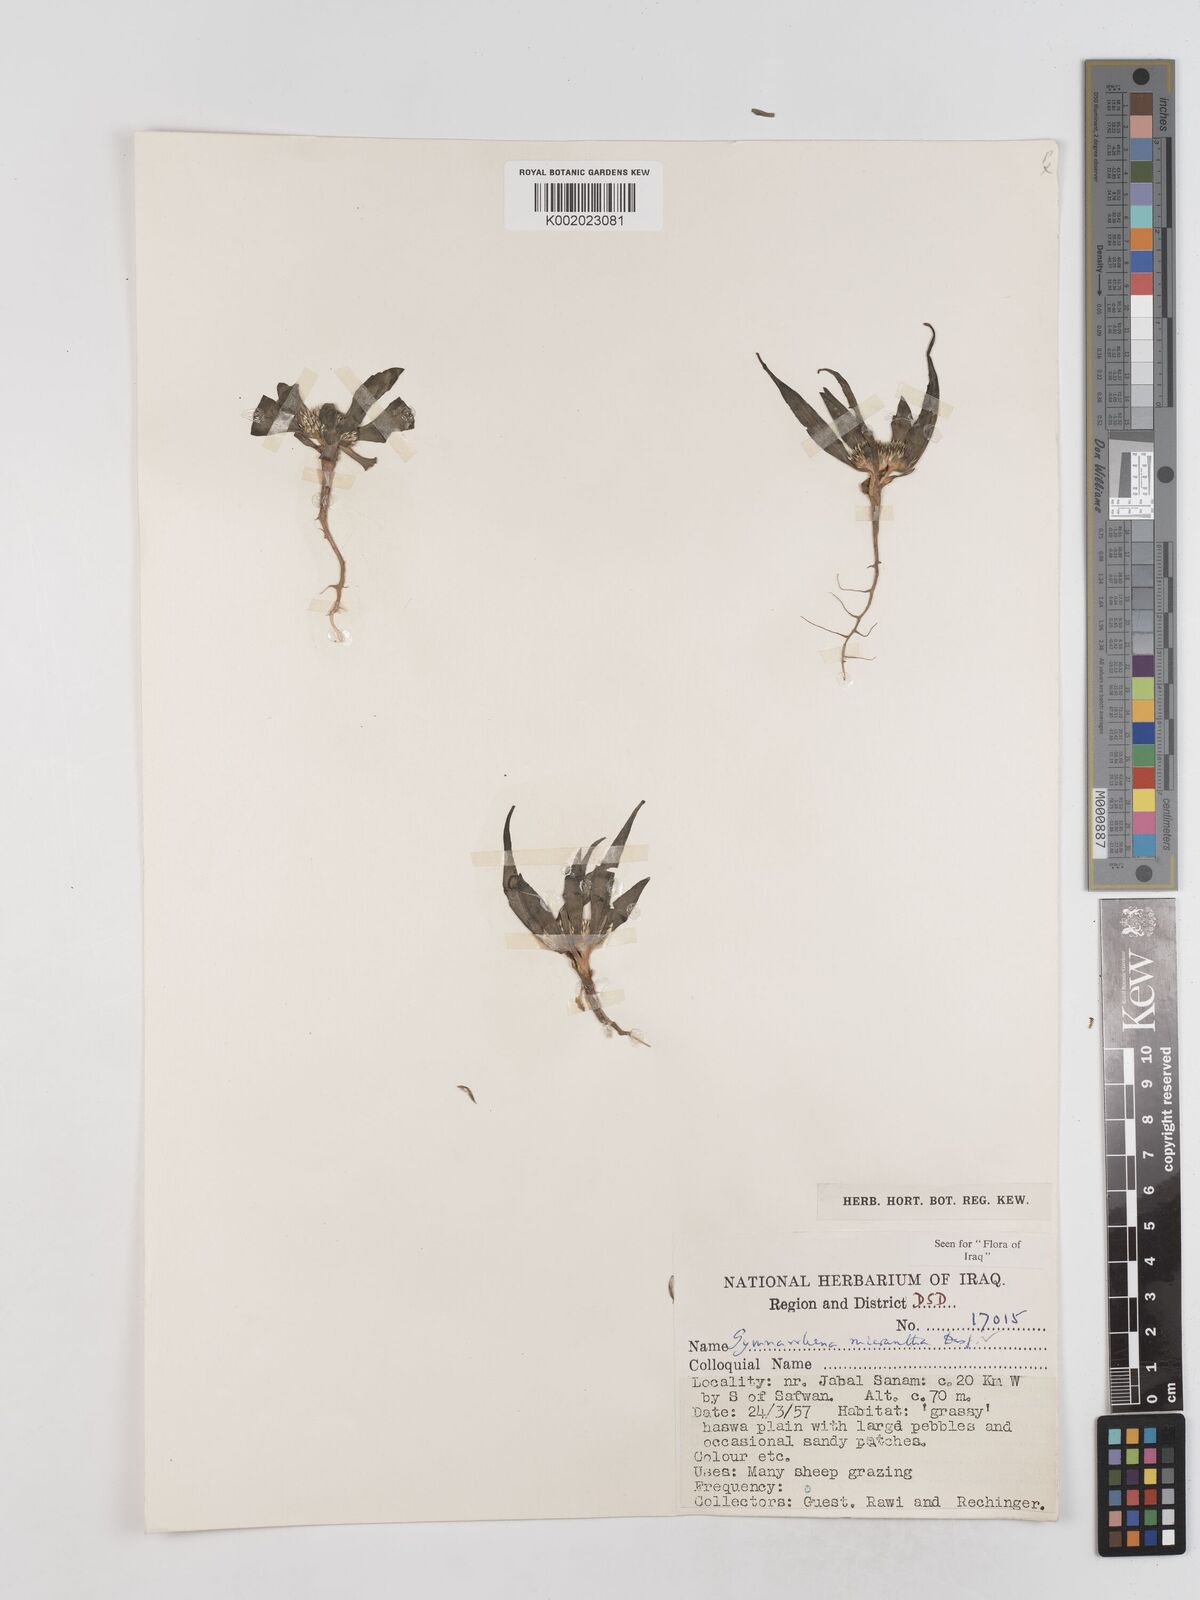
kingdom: Plantae
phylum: Tracheophyta
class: Magnoliopsida
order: Asterales
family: Asteraceae
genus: Gymnarrhena
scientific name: Gymnarrhena micrantha
